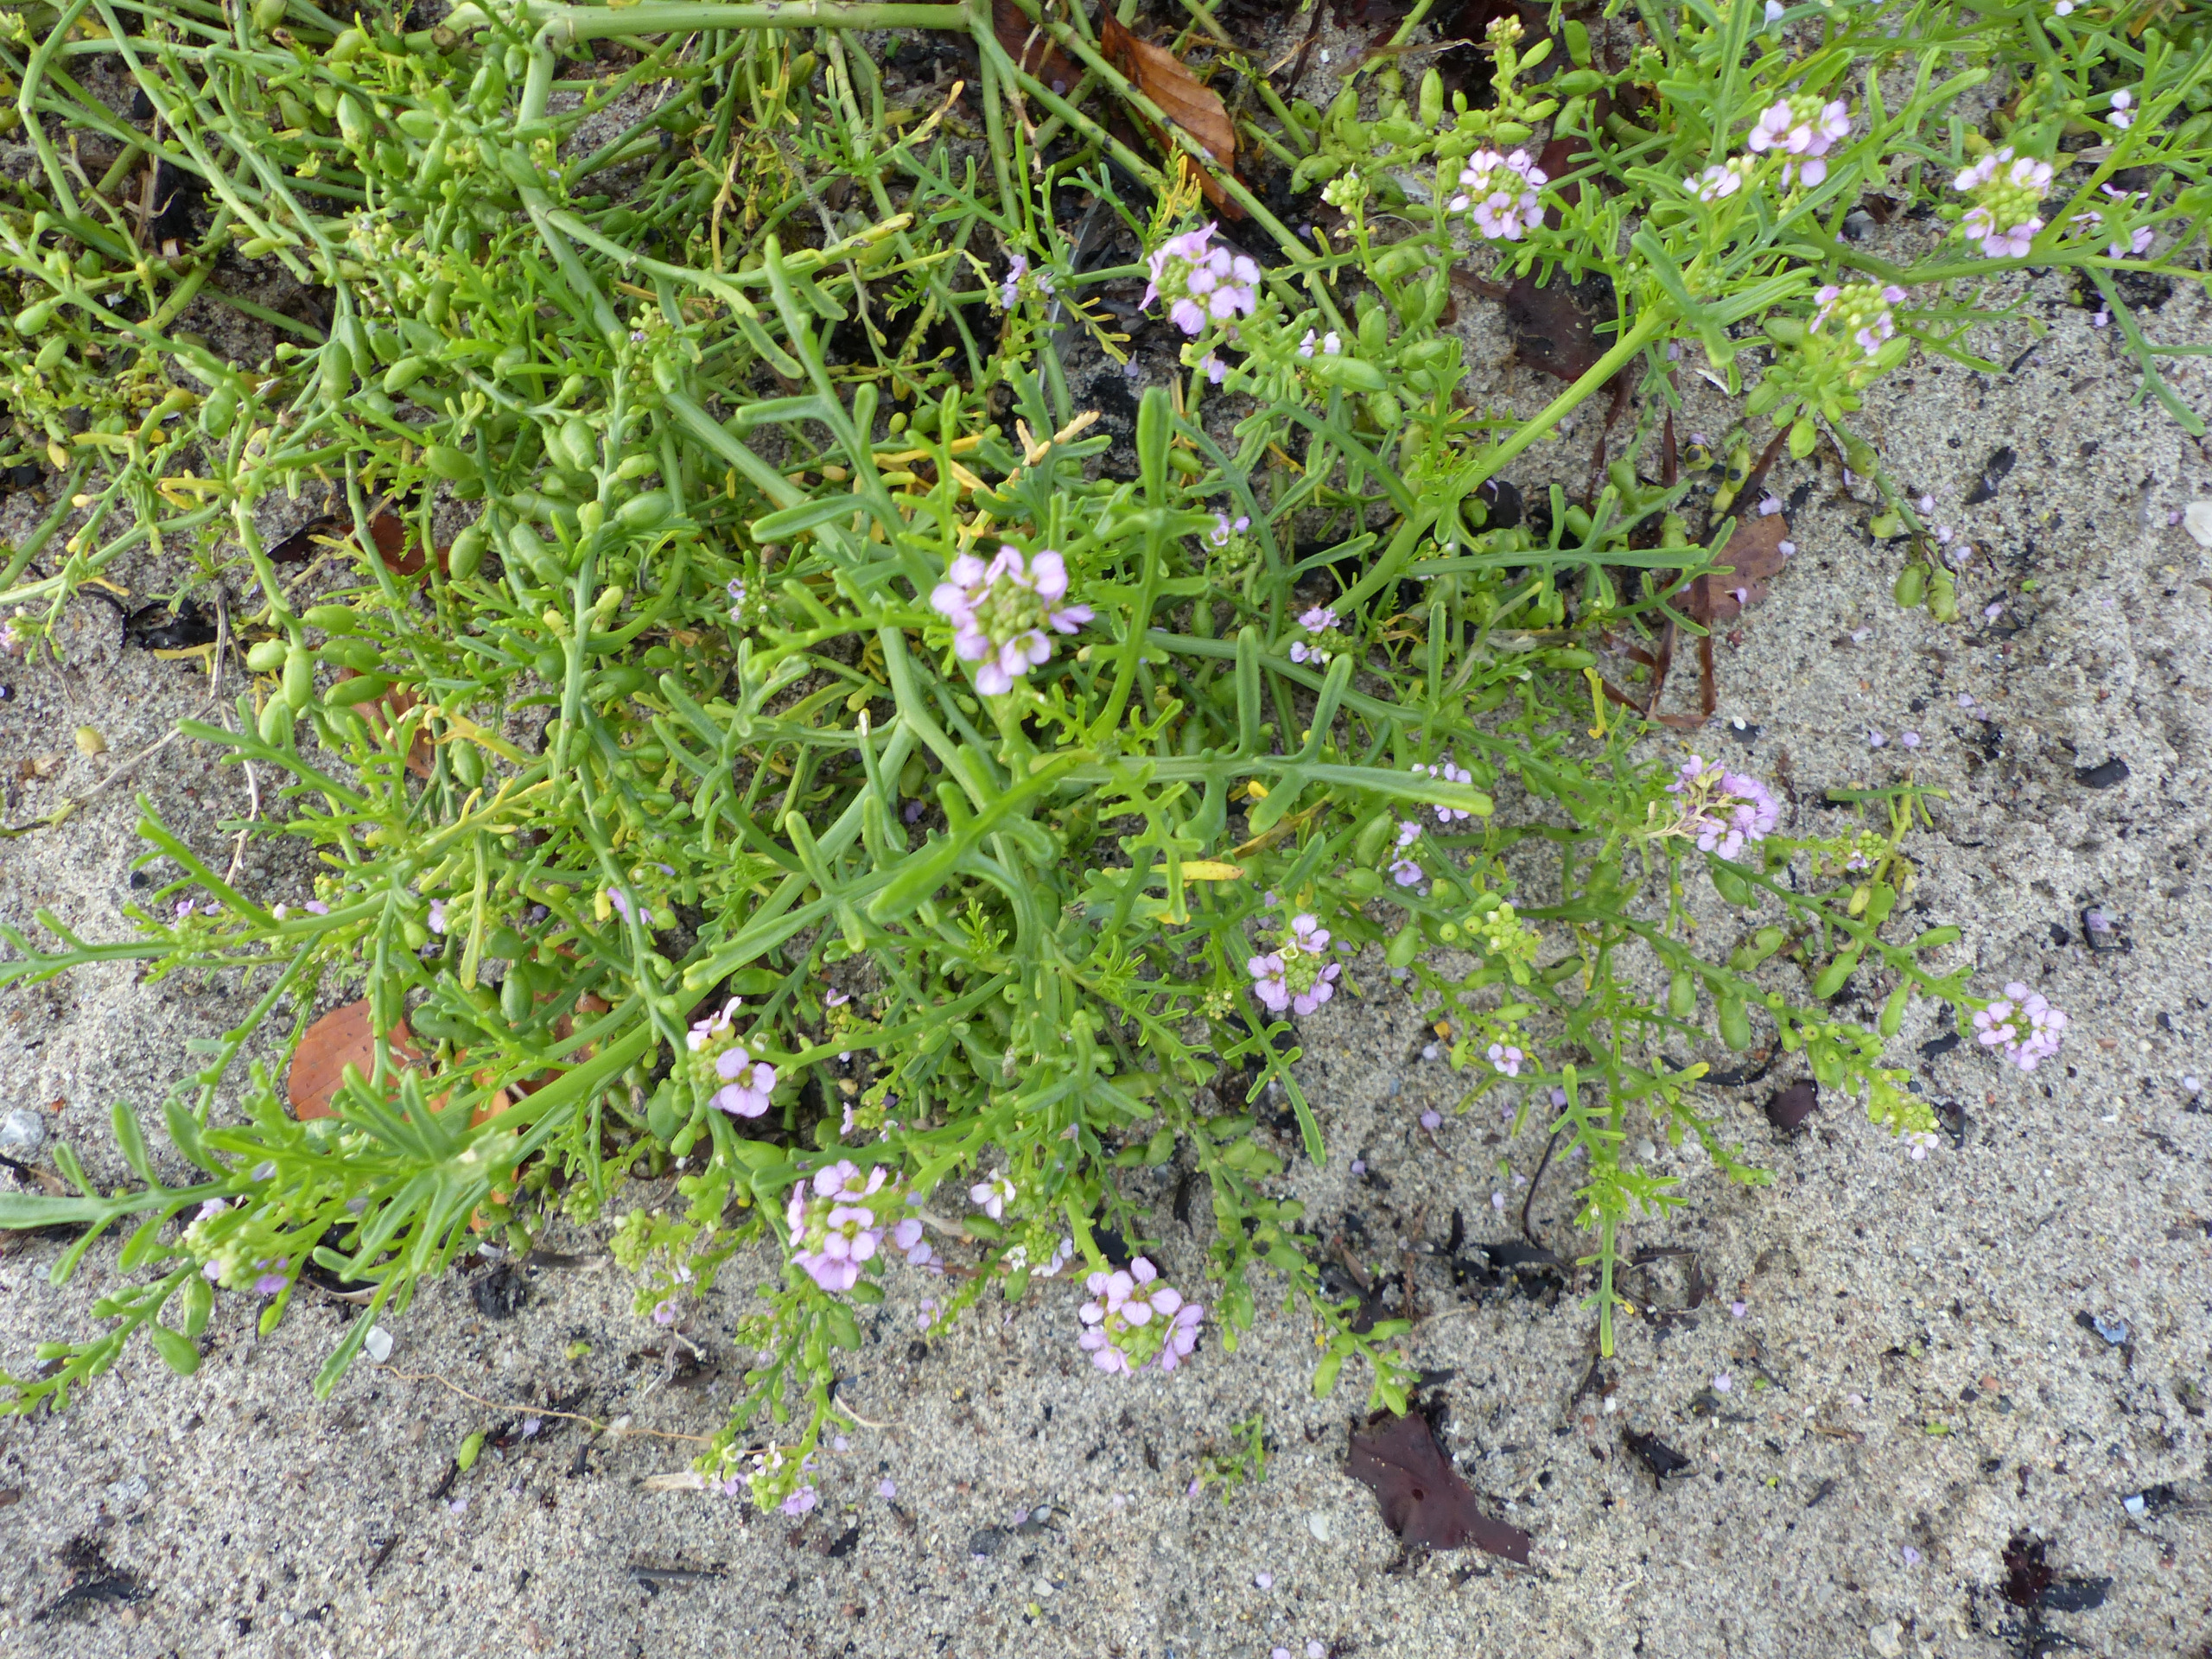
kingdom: Plantae
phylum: Tracheophyta
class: Magnoliopsida
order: Brassicales
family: Brassicaceae
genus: Cakile
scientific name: Cakile maritima
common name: Strandsennep
